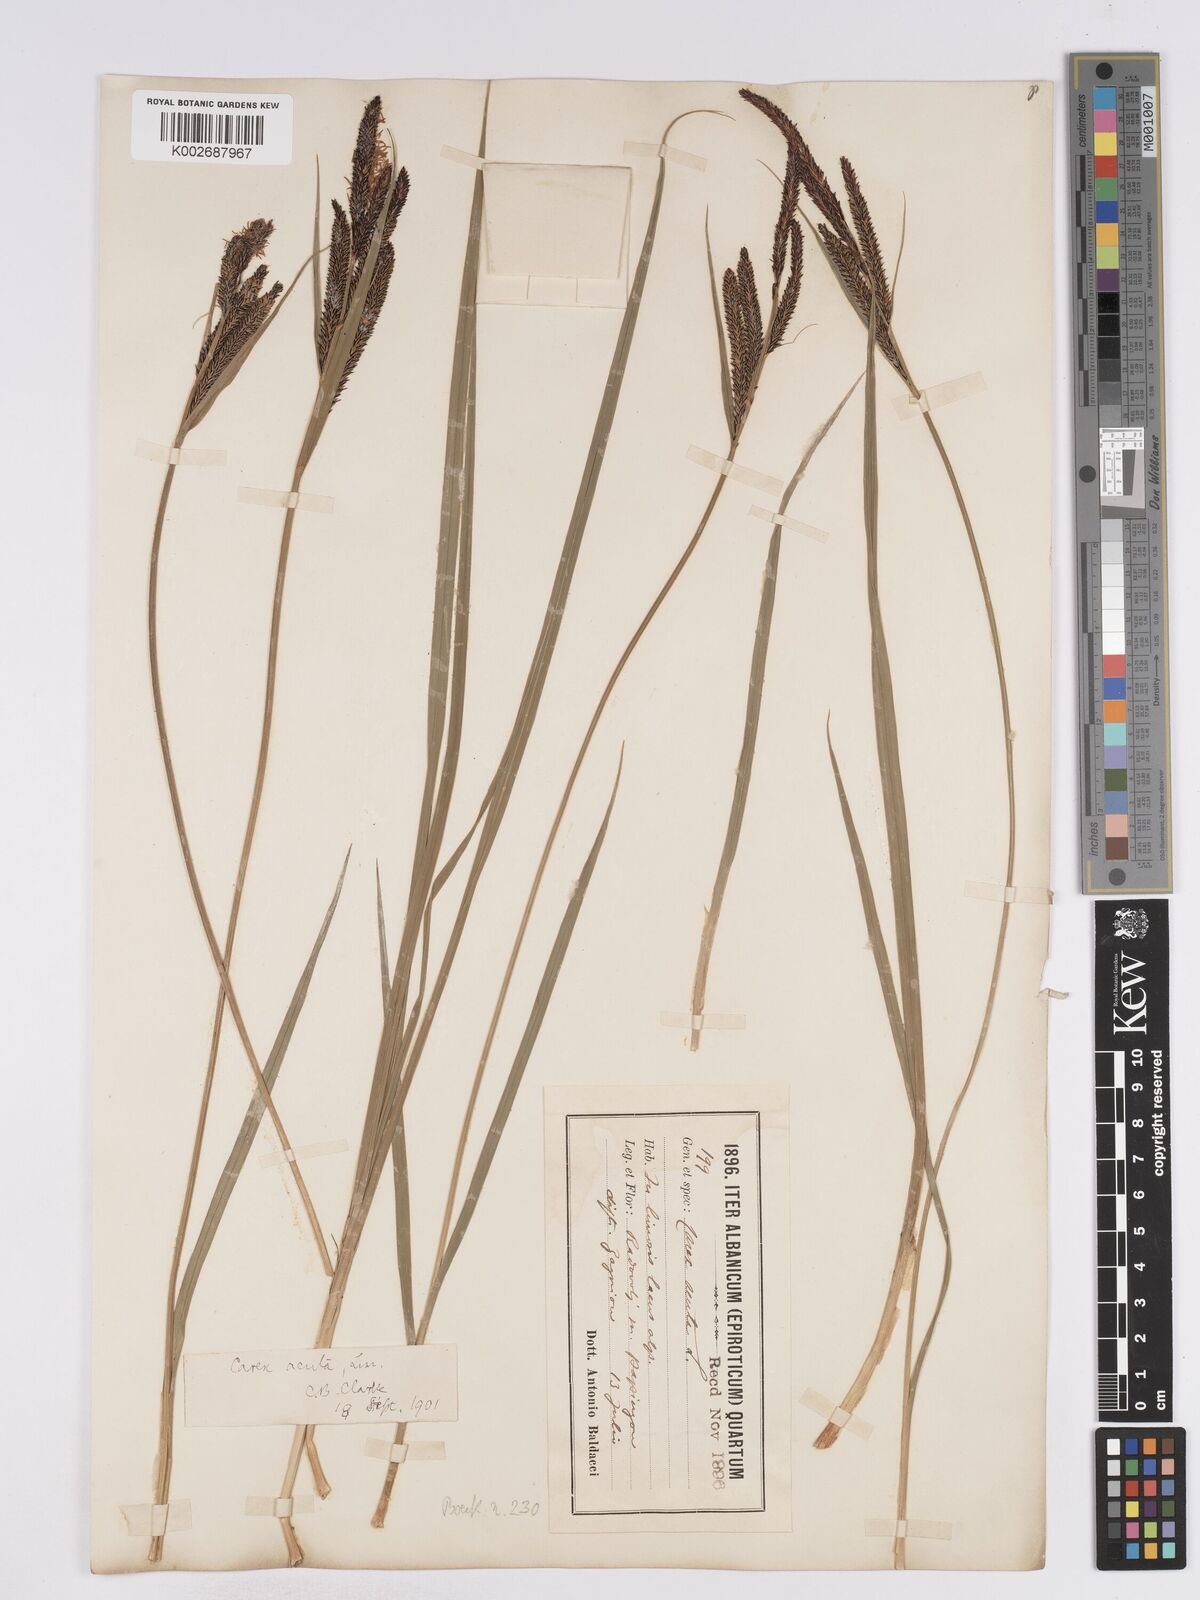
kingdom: Plantae
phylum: Tracheophyta
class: Liliopsida
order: Poales
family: Cyperaceae
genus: Carex
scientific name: Carex acuta
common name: Slender tufted-sedge
